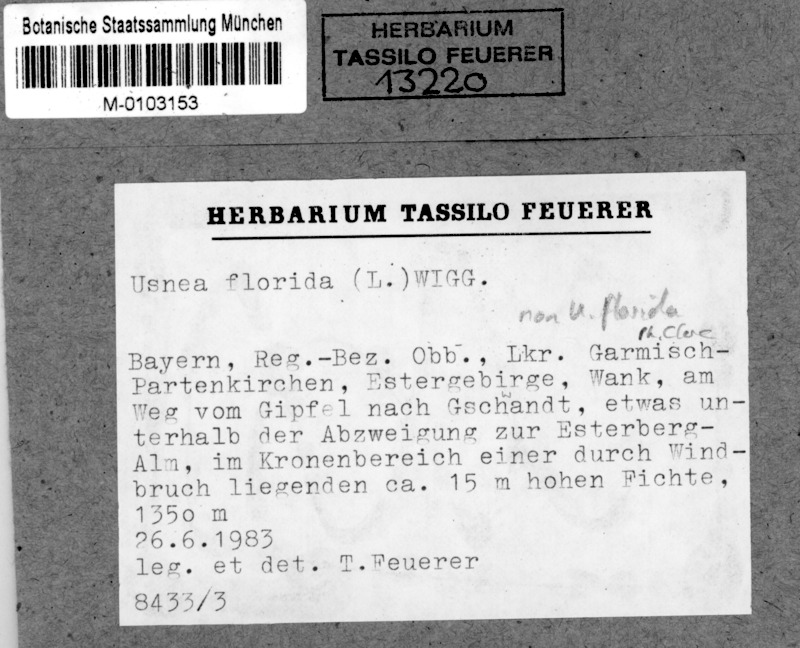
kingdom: Fungi
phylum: Ascomycota
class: Lecanoromycetes
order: Lecanorales
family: Parmeliaceae
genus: Usnea
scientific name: Usnea florida
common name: Witches' whiskers lichen
